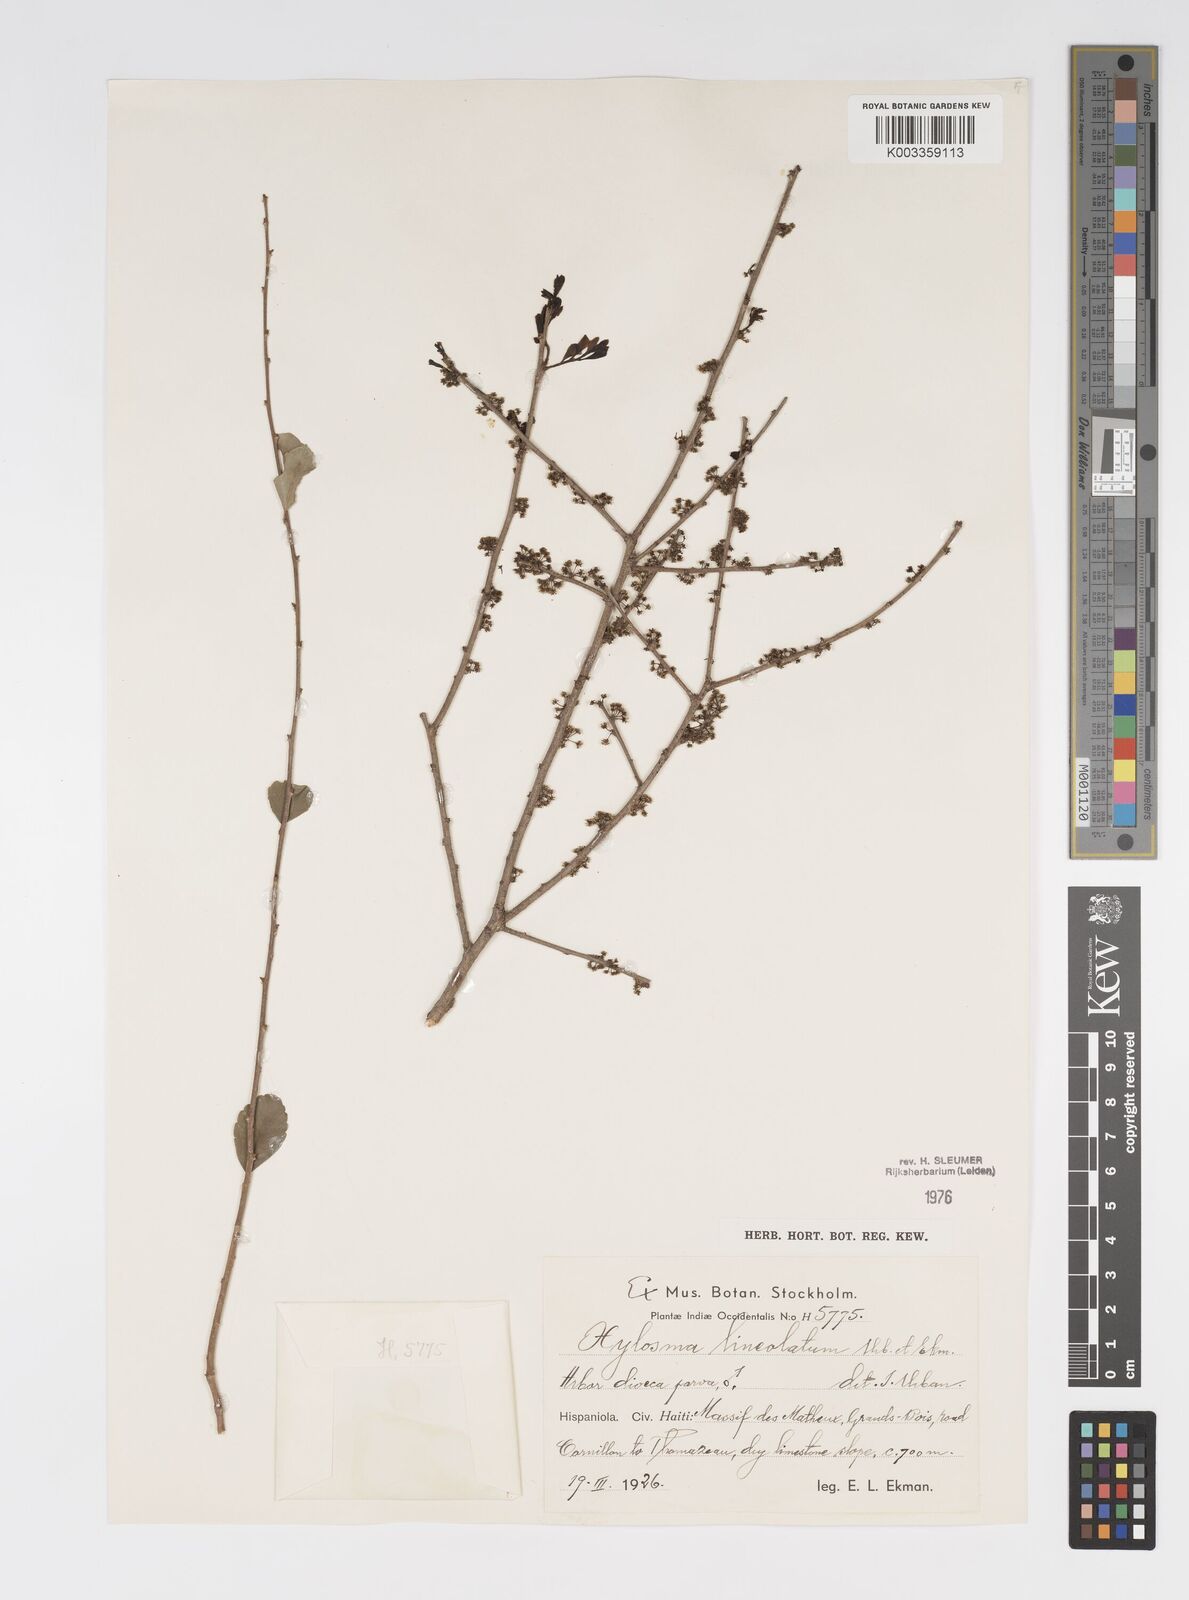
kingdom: Plantae
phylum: Tracheophyta
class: Magnoliopsida
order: Malpighiales
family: Salicaceae
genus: Xylosma
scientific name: Xylosma lineolata
